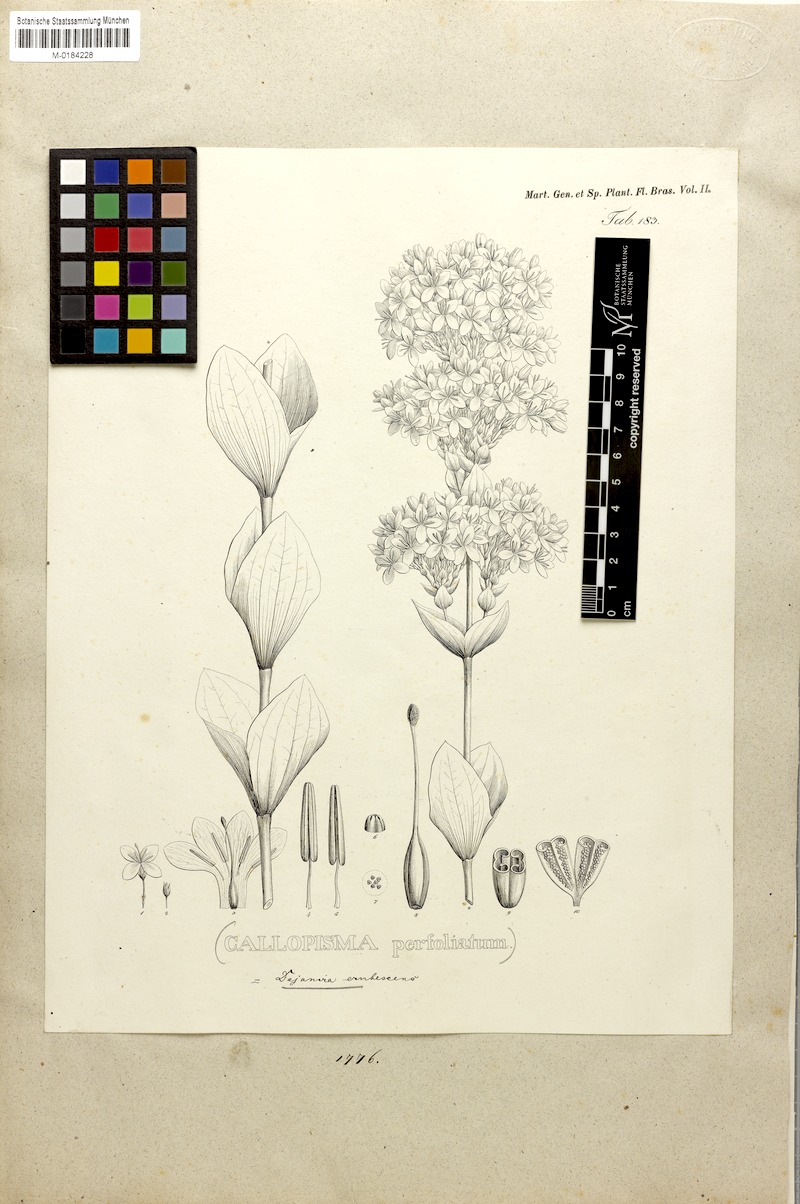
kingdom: Plantae
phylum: Tracheophyta
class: Magnoliopsida
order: Gentianales
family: Gentianaceae
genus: Deianira
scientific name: Deianira erubescens
